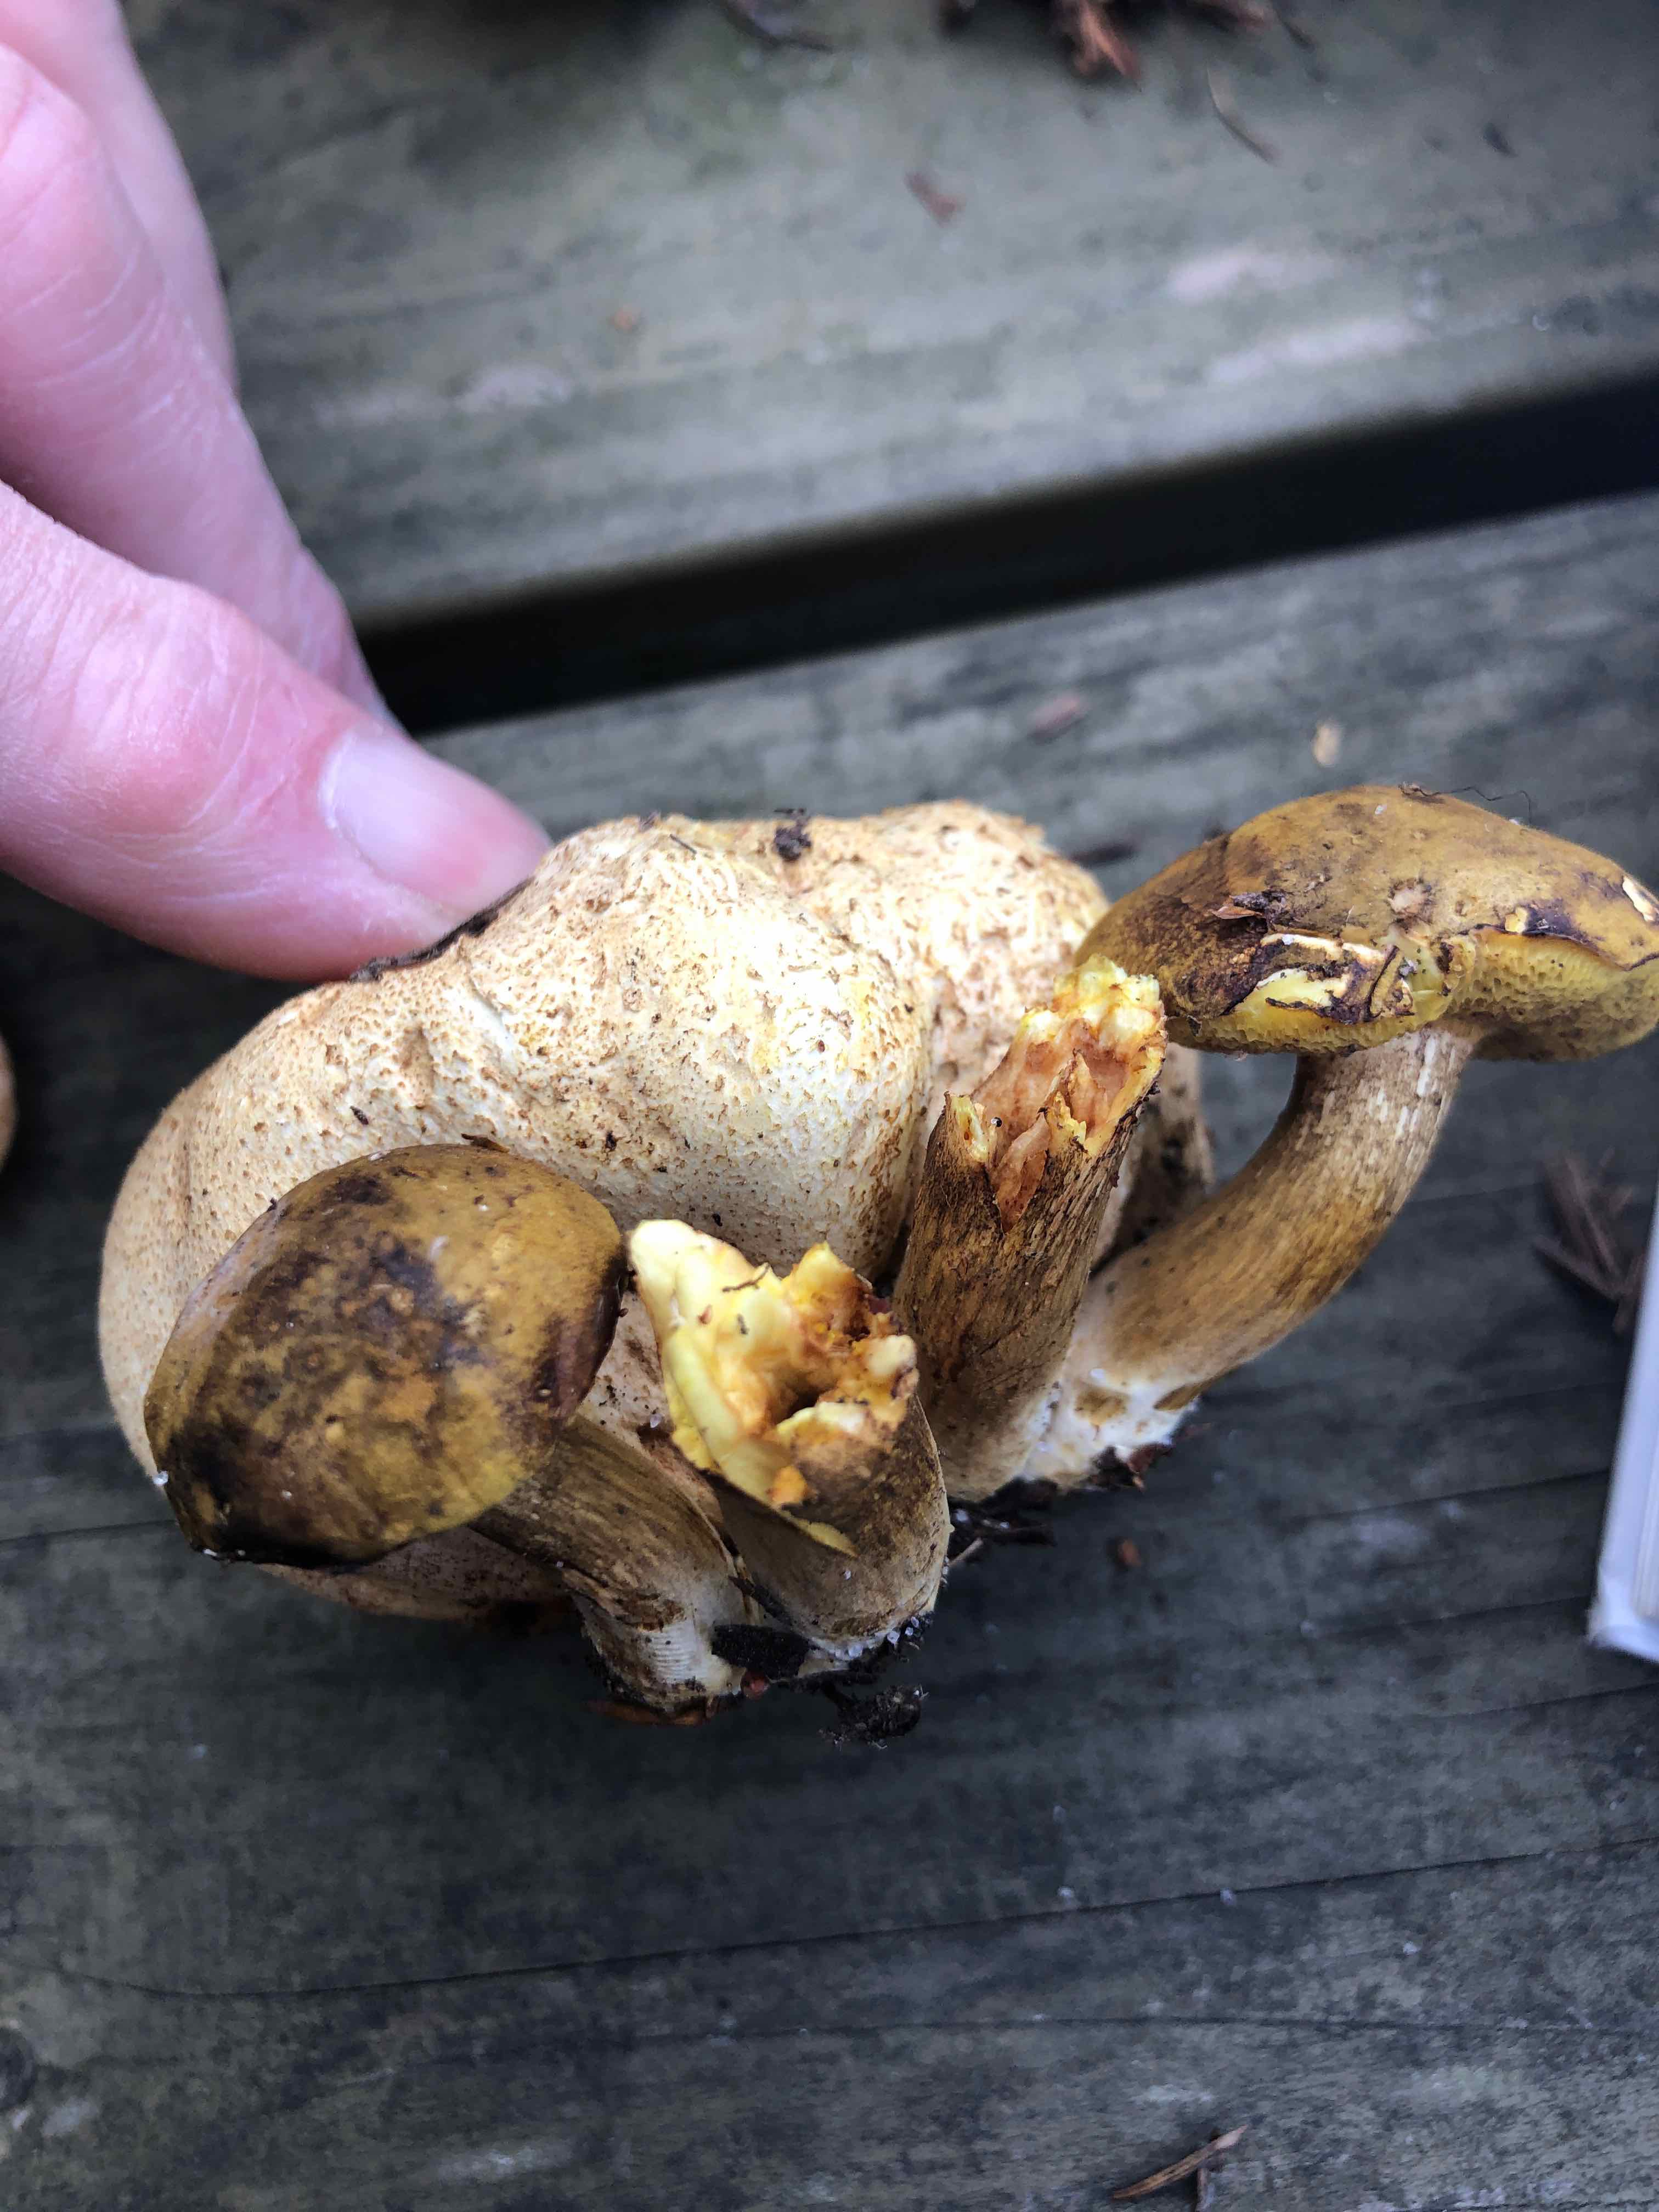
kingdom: Fungi
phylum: Basidiomycota
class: Agaricomycetes
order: Boletales
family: Boletaceae
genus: Pseudoboletus
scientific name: Pseudoboletus parasiticus
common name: snyltende rørhat
